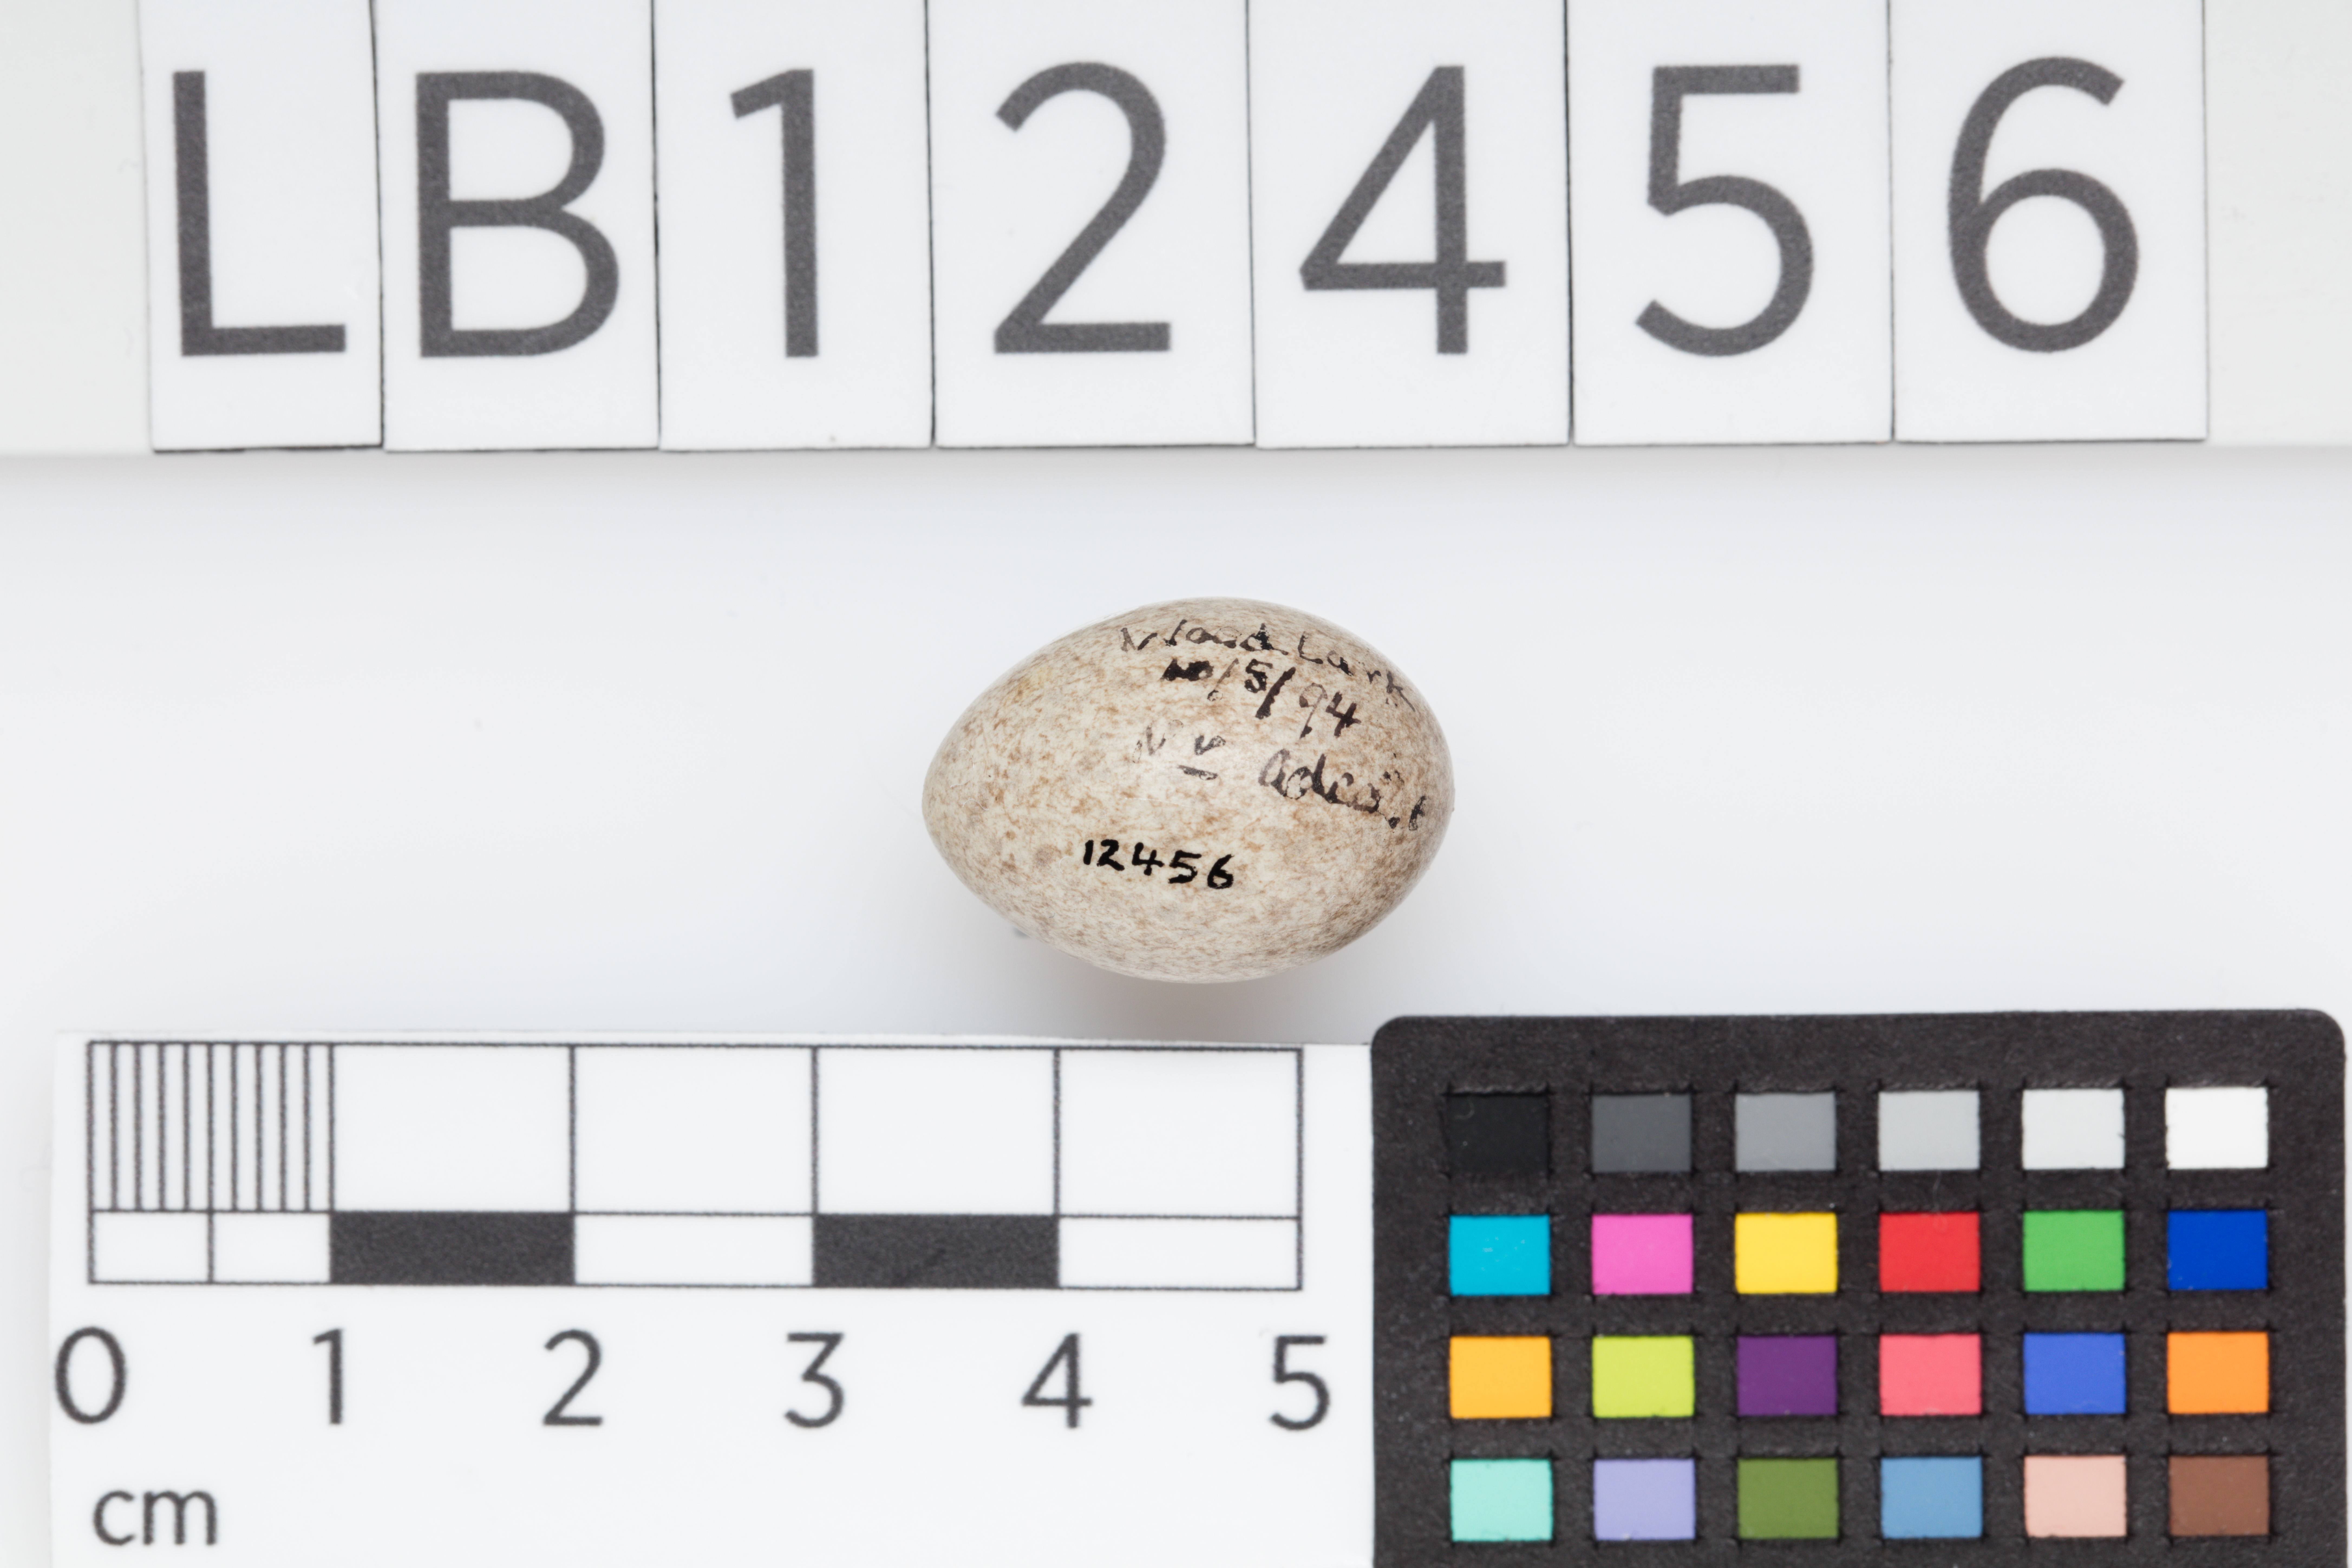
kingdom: Animalia
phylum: Chordata
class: Aves
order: Passeriformes
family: Alaudidae
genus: Lullula
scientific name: Lullula arborea
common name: Woodlark
